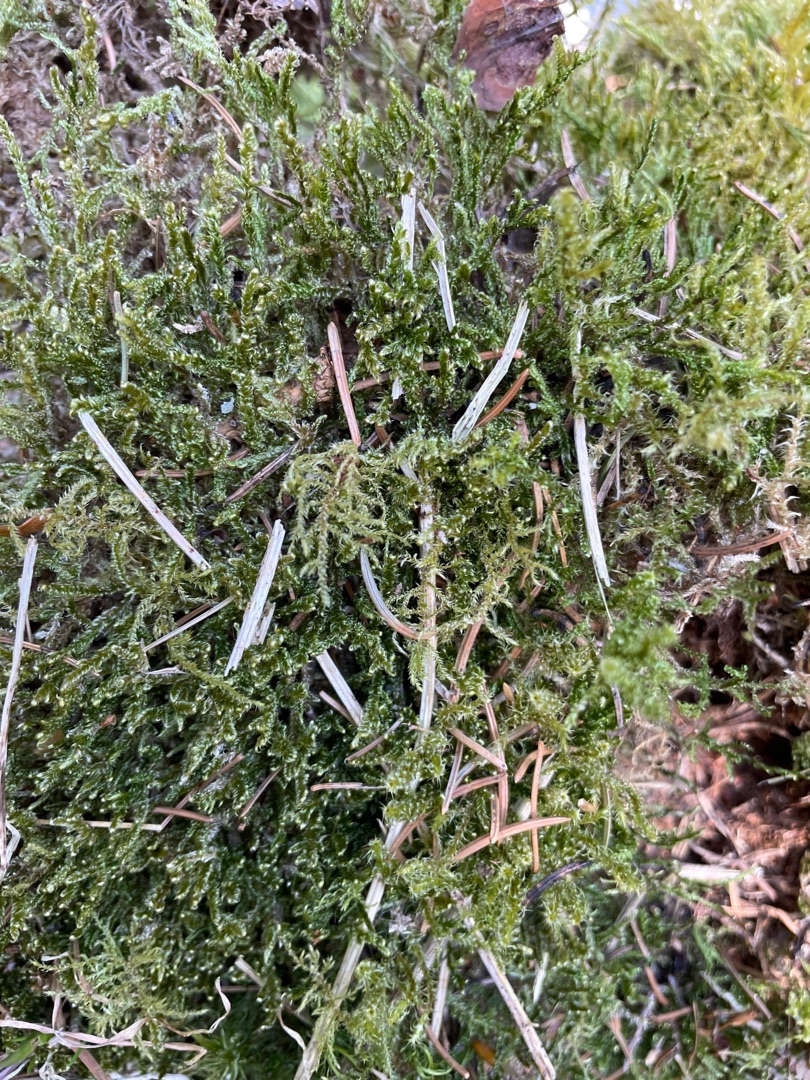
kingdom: Plantae
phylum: Bryophyta
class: Bryopsida
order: Hypnales
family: Hypnaceae
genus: Hypnum
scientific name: Hypnum
